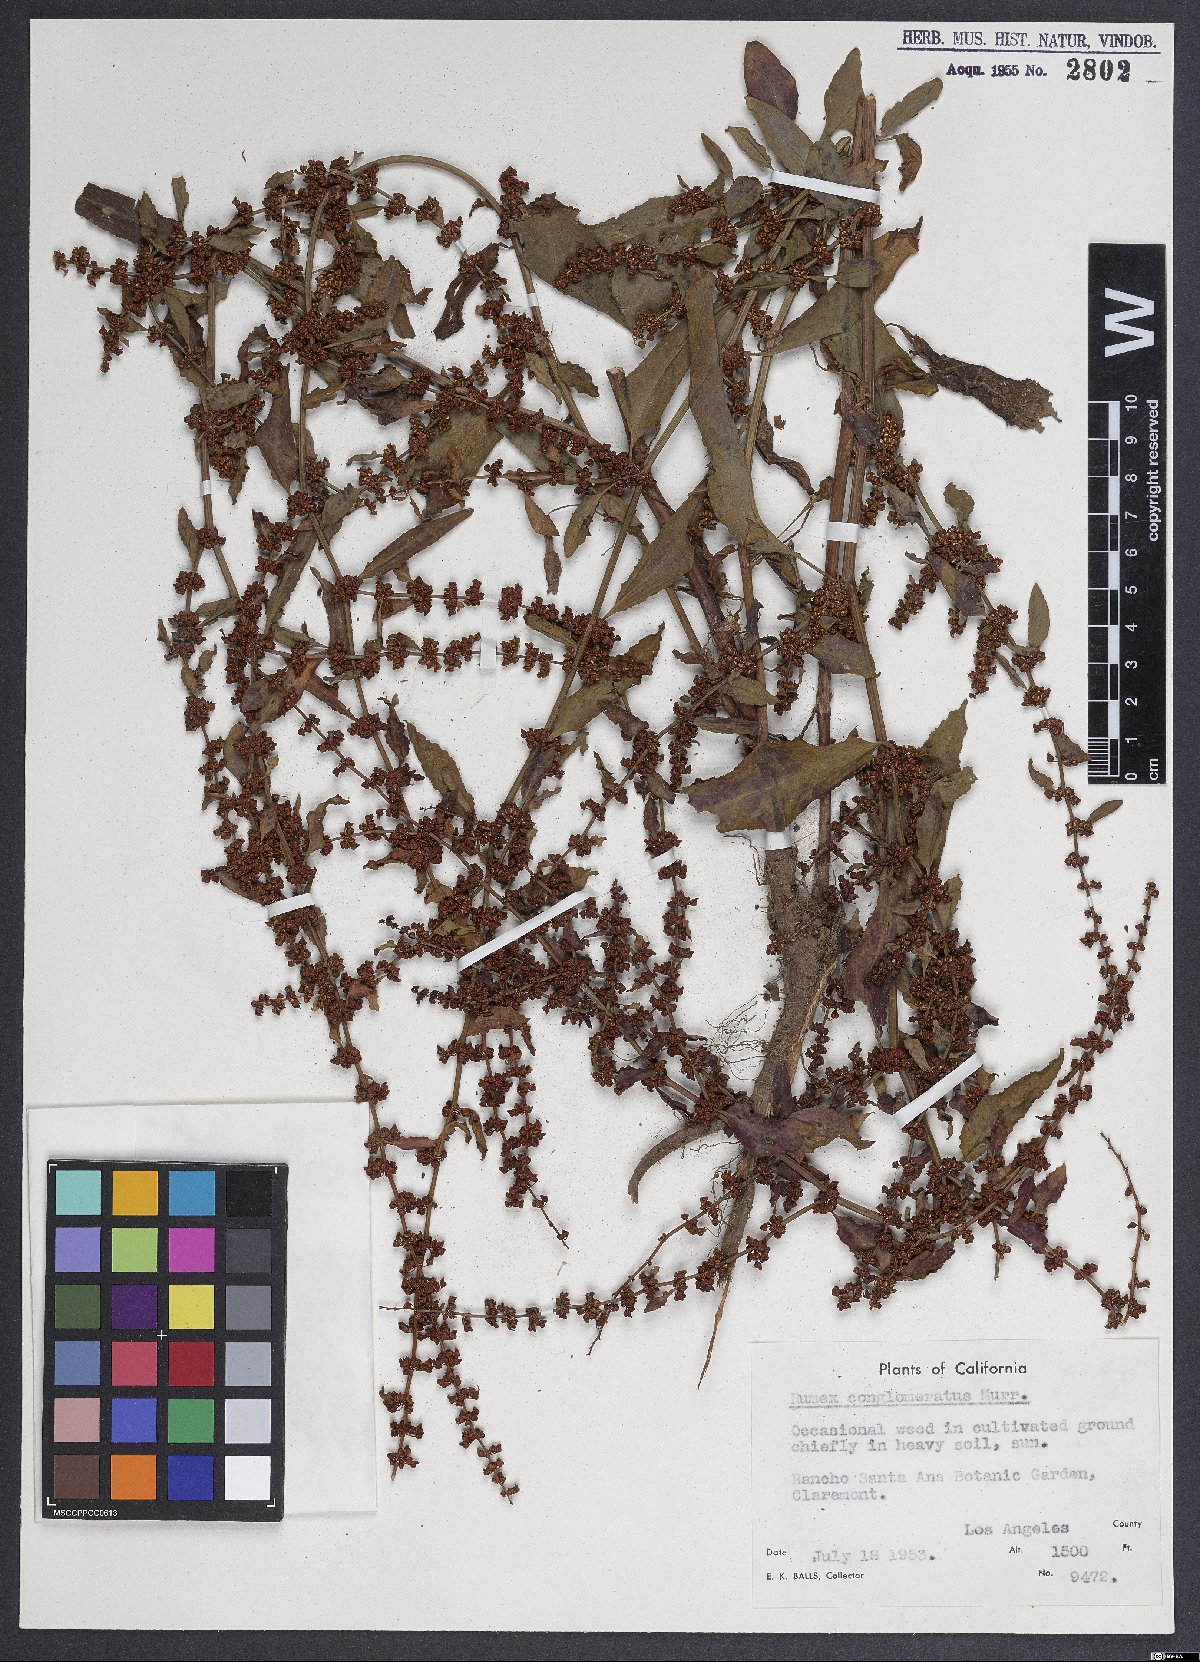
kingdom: Plantae
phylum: Tracheophyta
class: Magnoliopsida
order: Caryophyllales
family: Polygonaceae
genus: Rumex
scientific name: Rumex conglomeratus
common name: Clustered dock
